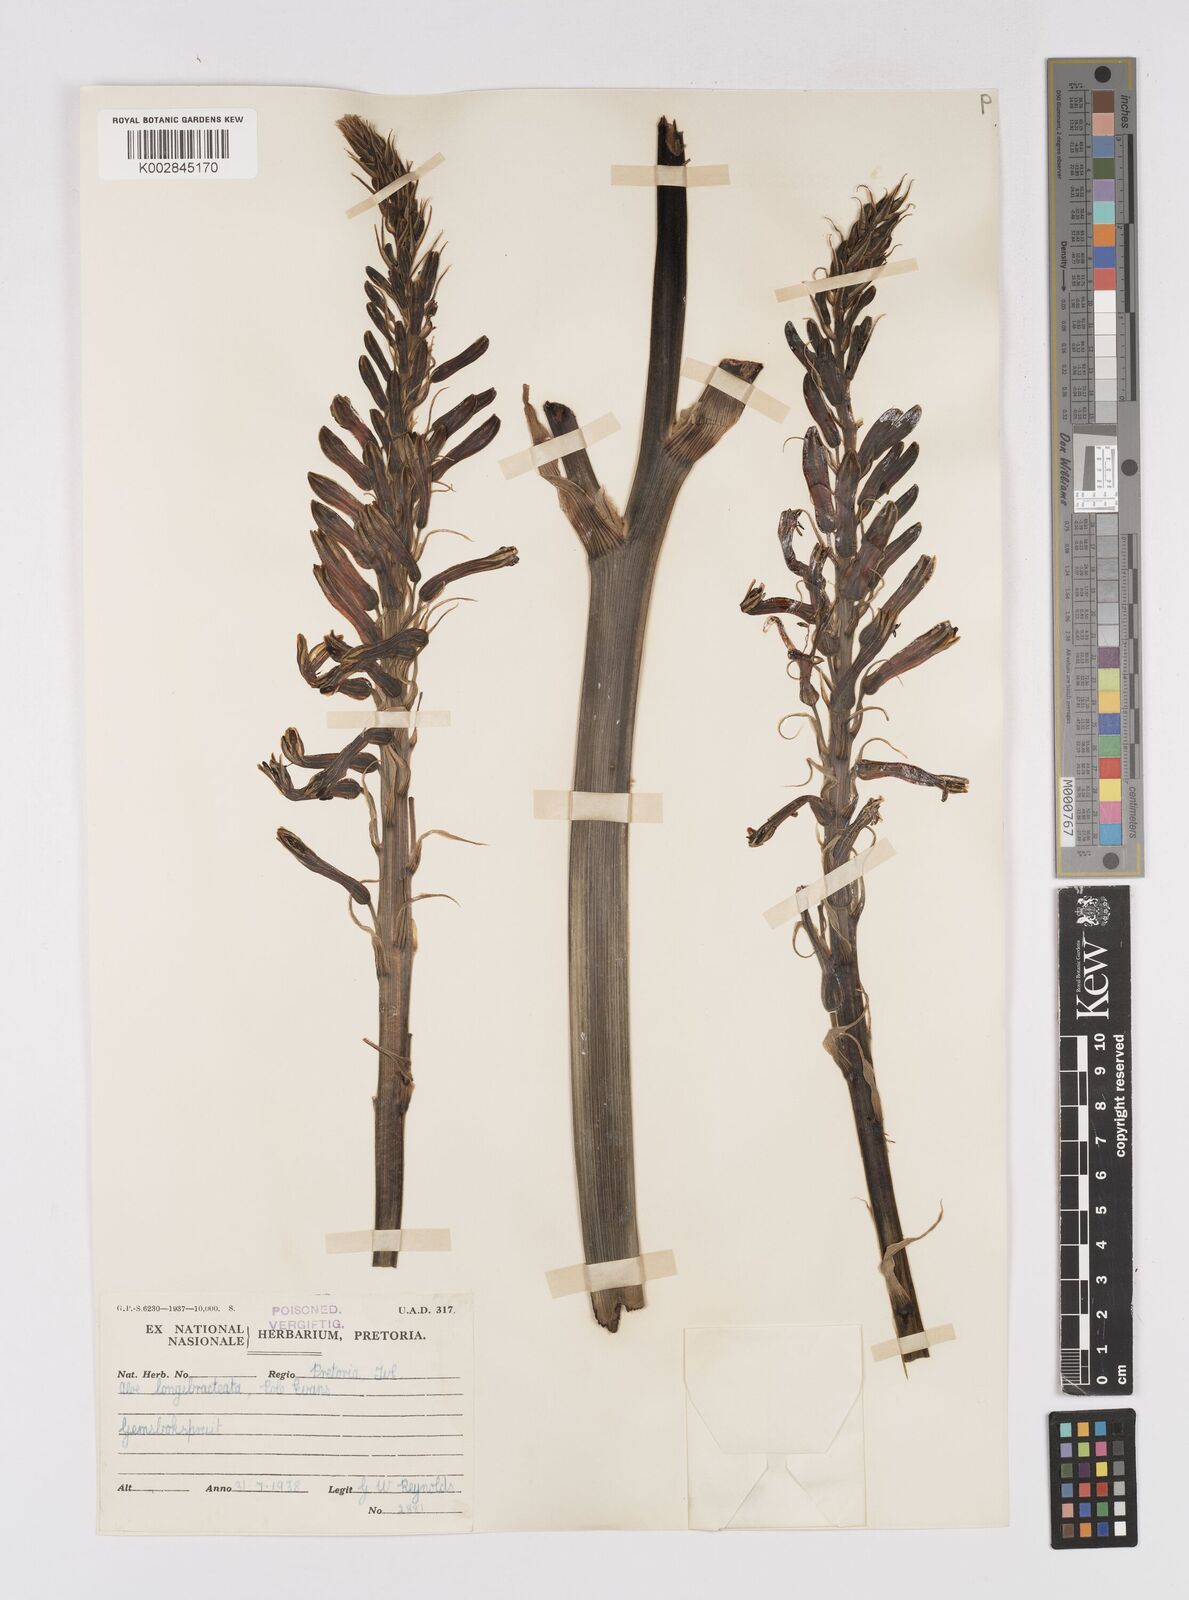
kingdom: Plantae
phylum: Tracheophyta
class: Liliopsida
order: Asparagales
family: Asphodelaceae
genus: Aloe
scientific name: Aloe longibracteata
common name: Limpopo spotted aloe
